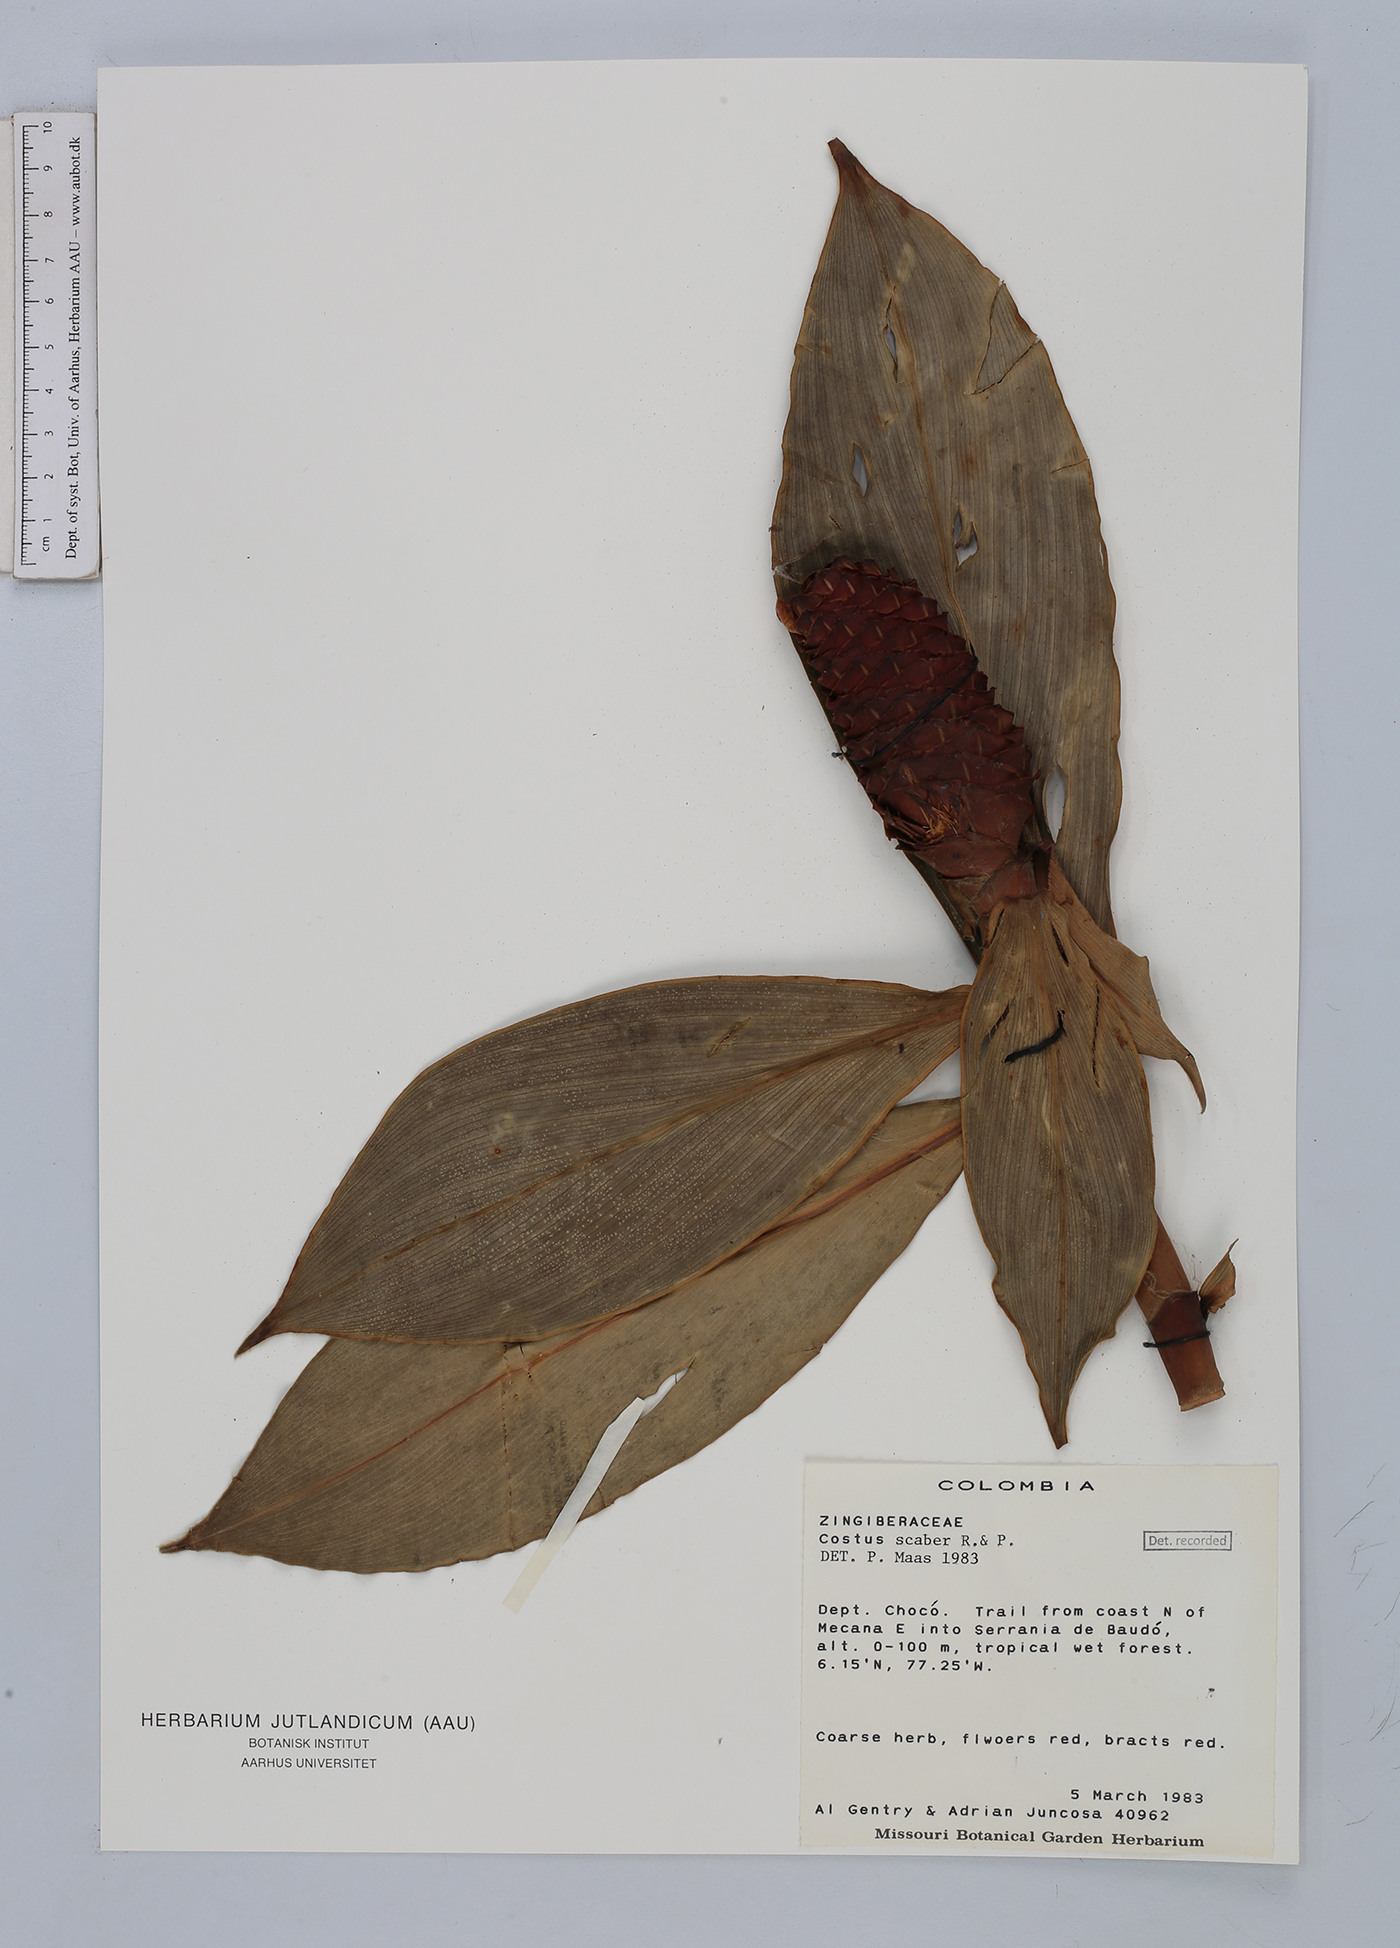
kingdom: Plantae
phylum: Tracheophyta
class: Liliopsida
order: Zingiberales
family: Costaceae
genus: Costus
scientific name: Costus scaber
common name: Spiral head ginger
